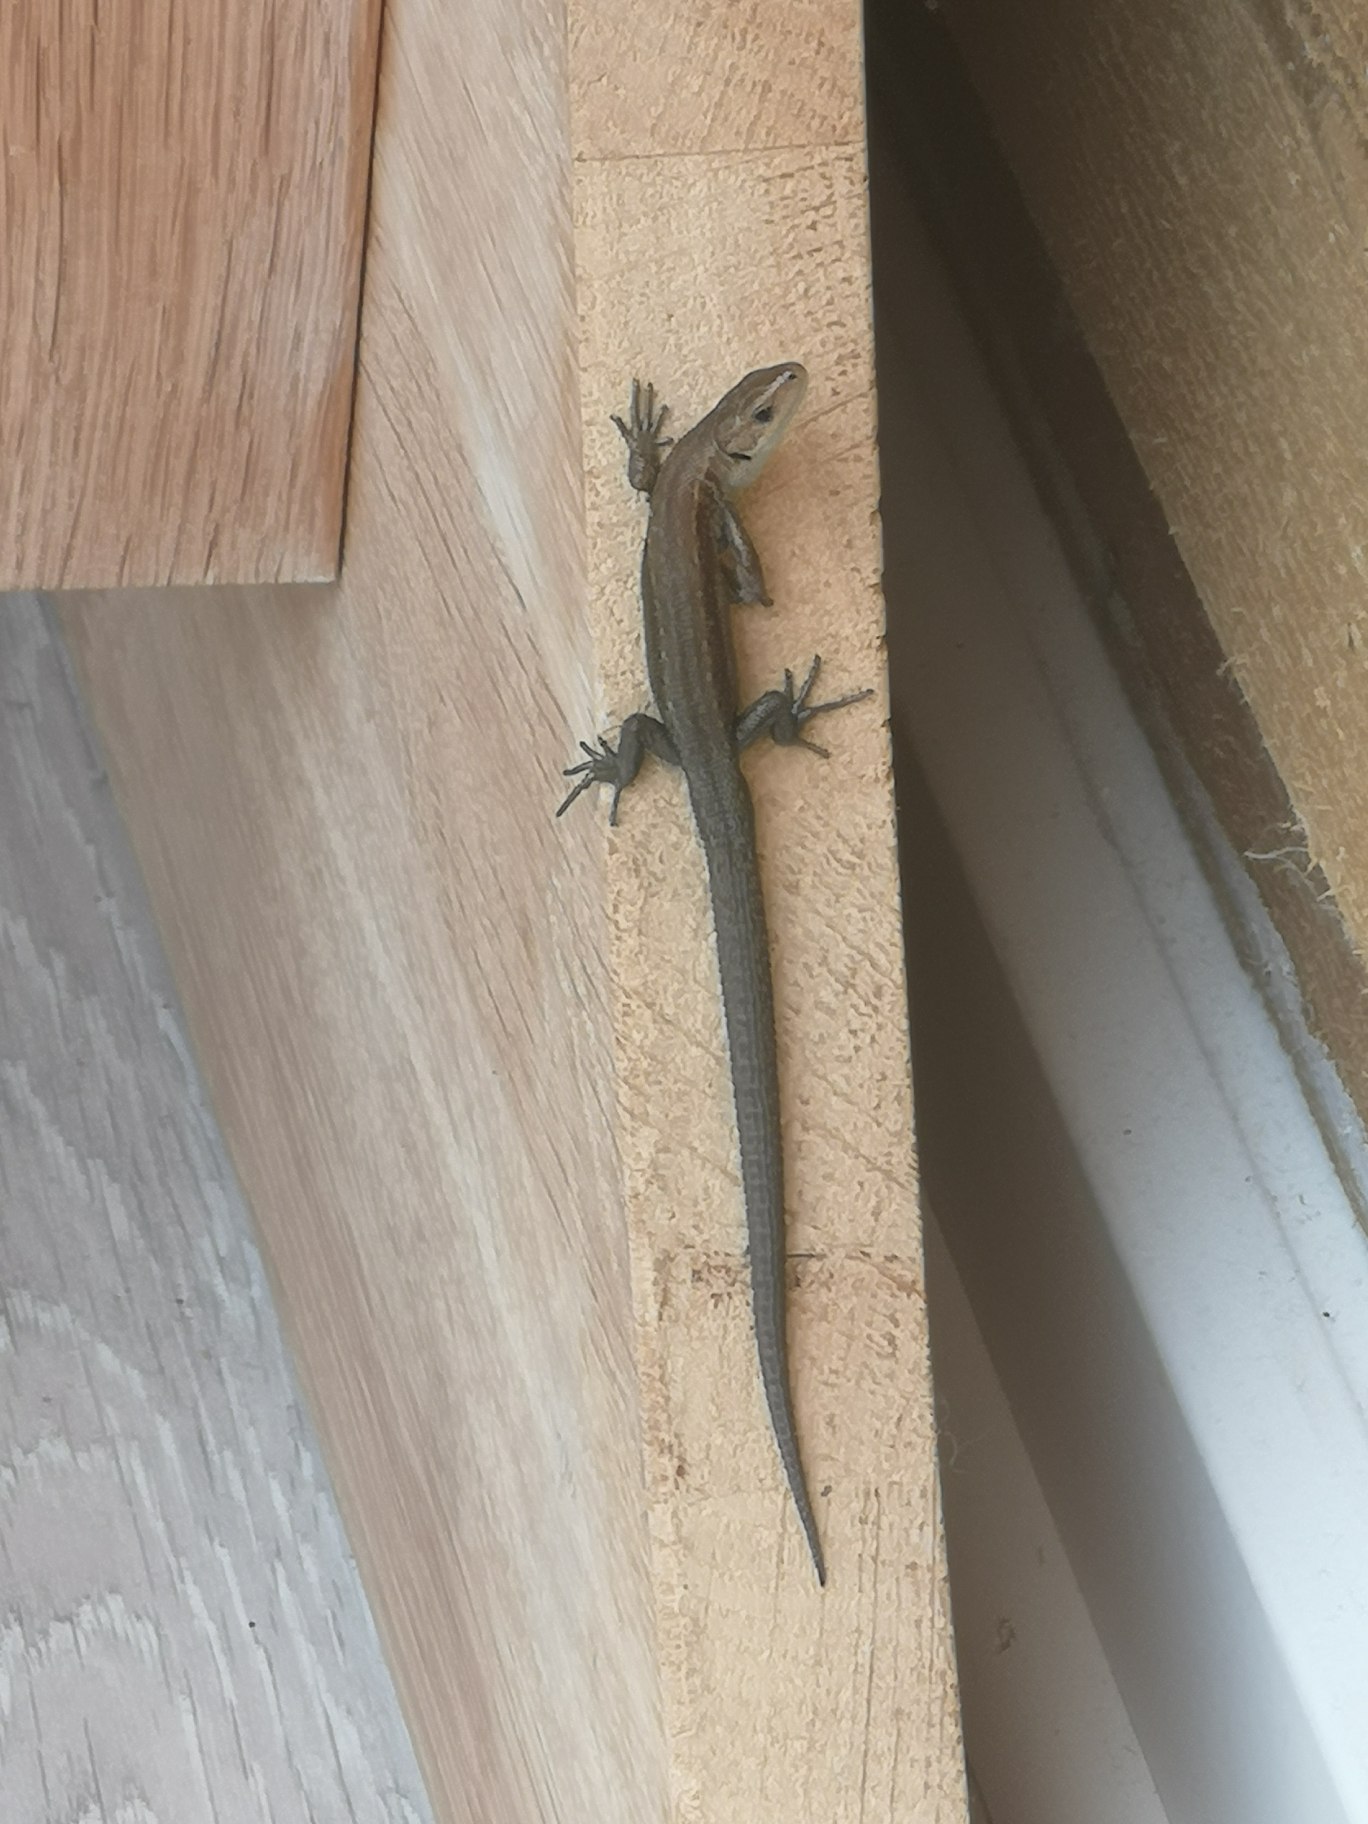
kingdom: Animalia
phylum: Chordata
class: Squamata
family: Lacertidae
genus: Zootoca
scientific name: Zootoca vivipara
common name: Skovfirben
